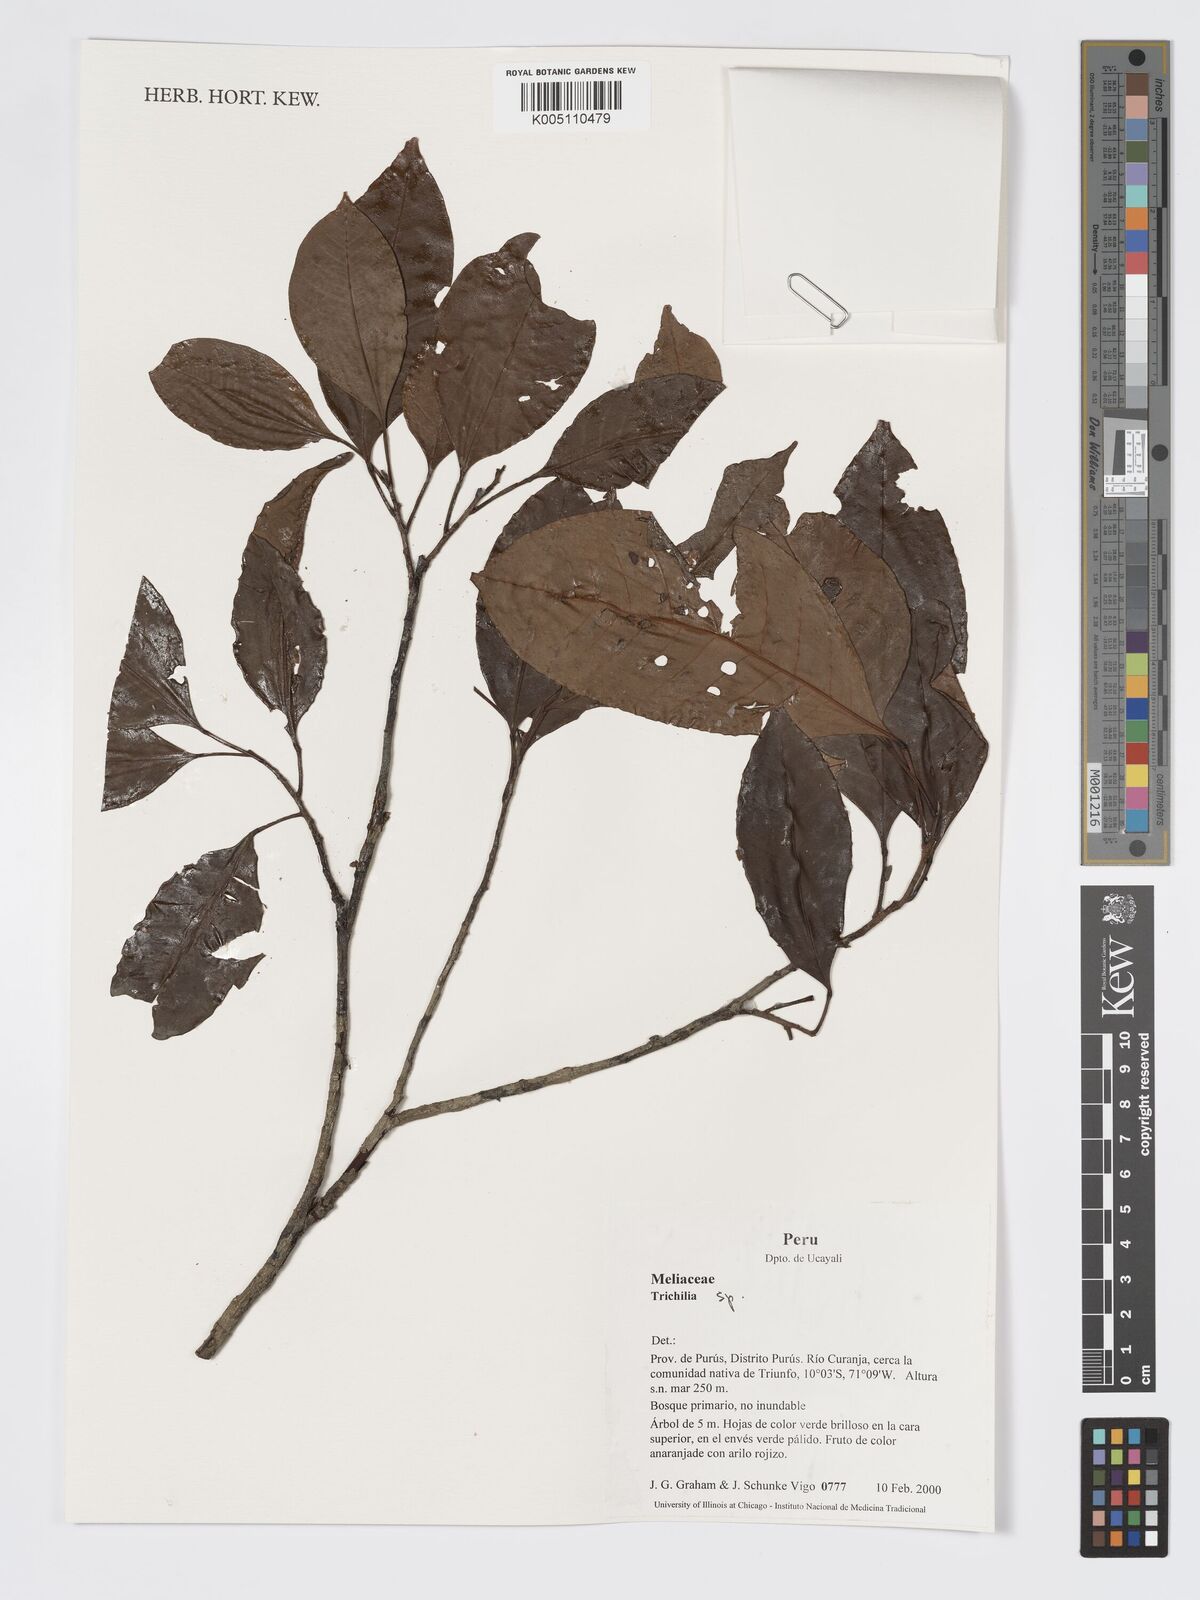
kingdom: Plantae
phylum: Tracheophyta
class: Magnoliopsida
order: Sapindales
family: Meliaceae
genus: Trichilia
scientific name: Trichilia
